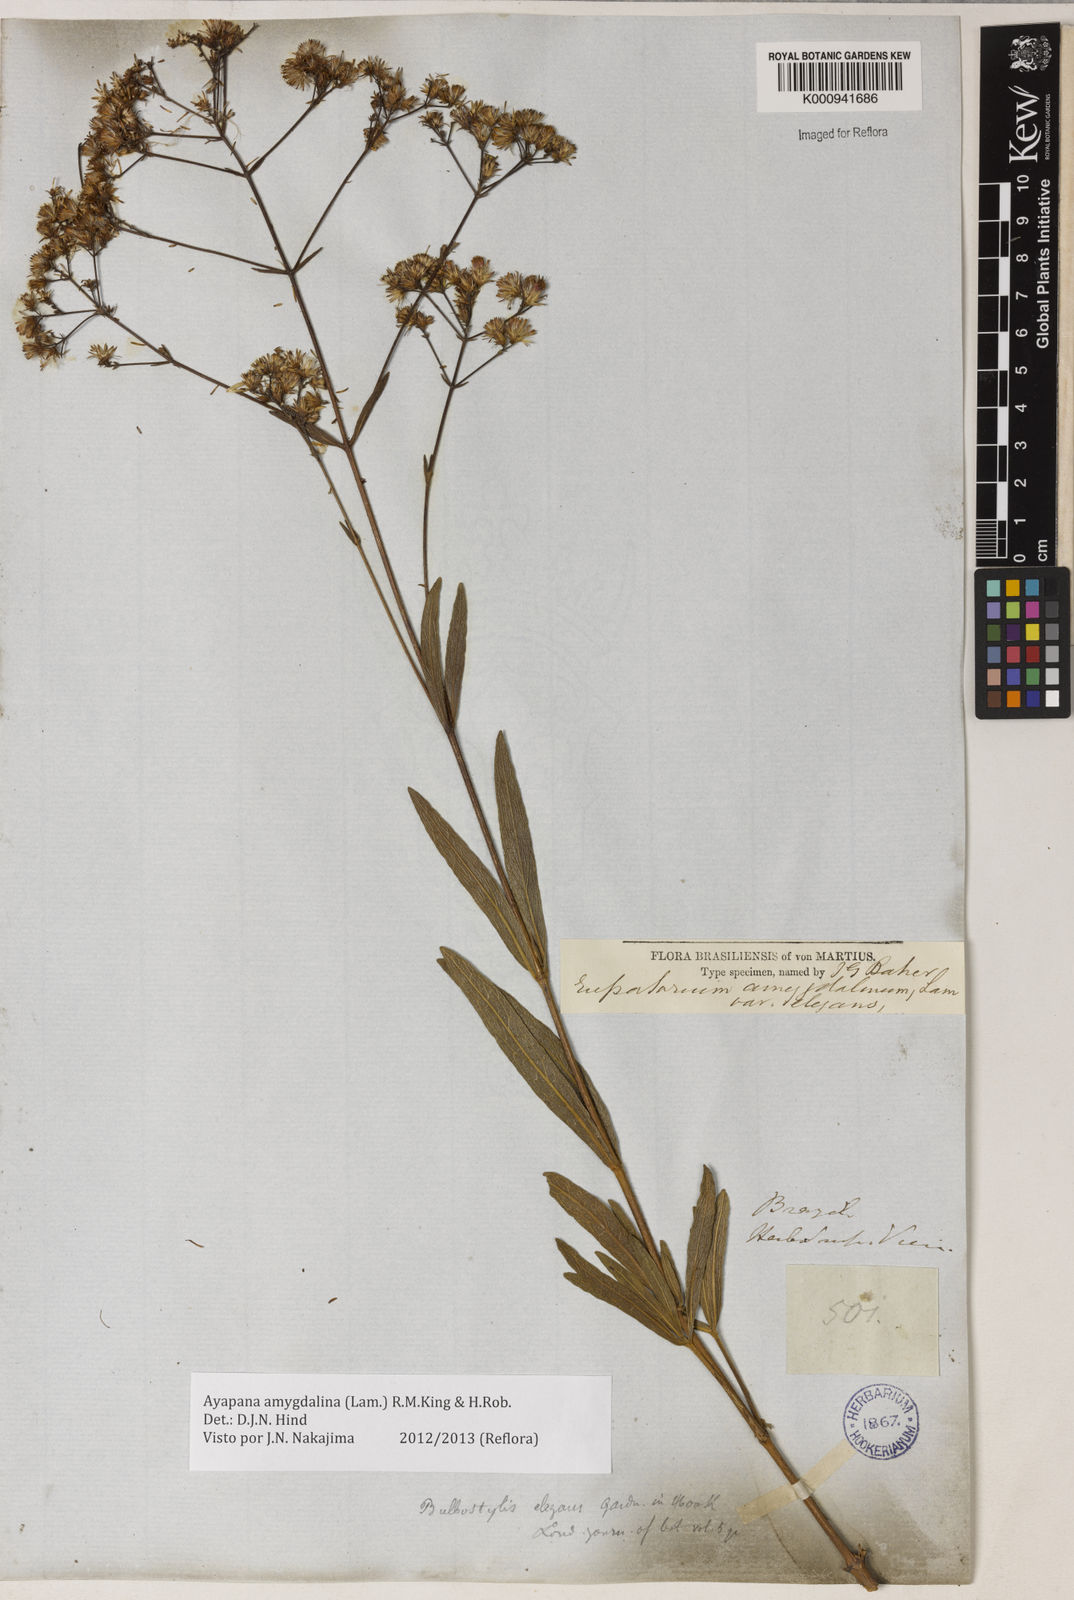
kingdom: Plantae
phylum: Tracheophyta
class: Magnoliopsida
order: Asterales
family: Asteraceae
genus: Ayapana
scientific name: Ayapana amygdalina
